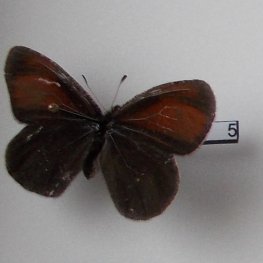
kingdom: Animalia
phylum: Arthropoda
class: Insecta
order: Lepidoptera
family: Nymphalidae
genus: Erebia
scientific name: Erebia discoidalis
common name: Red-disked Alpine
